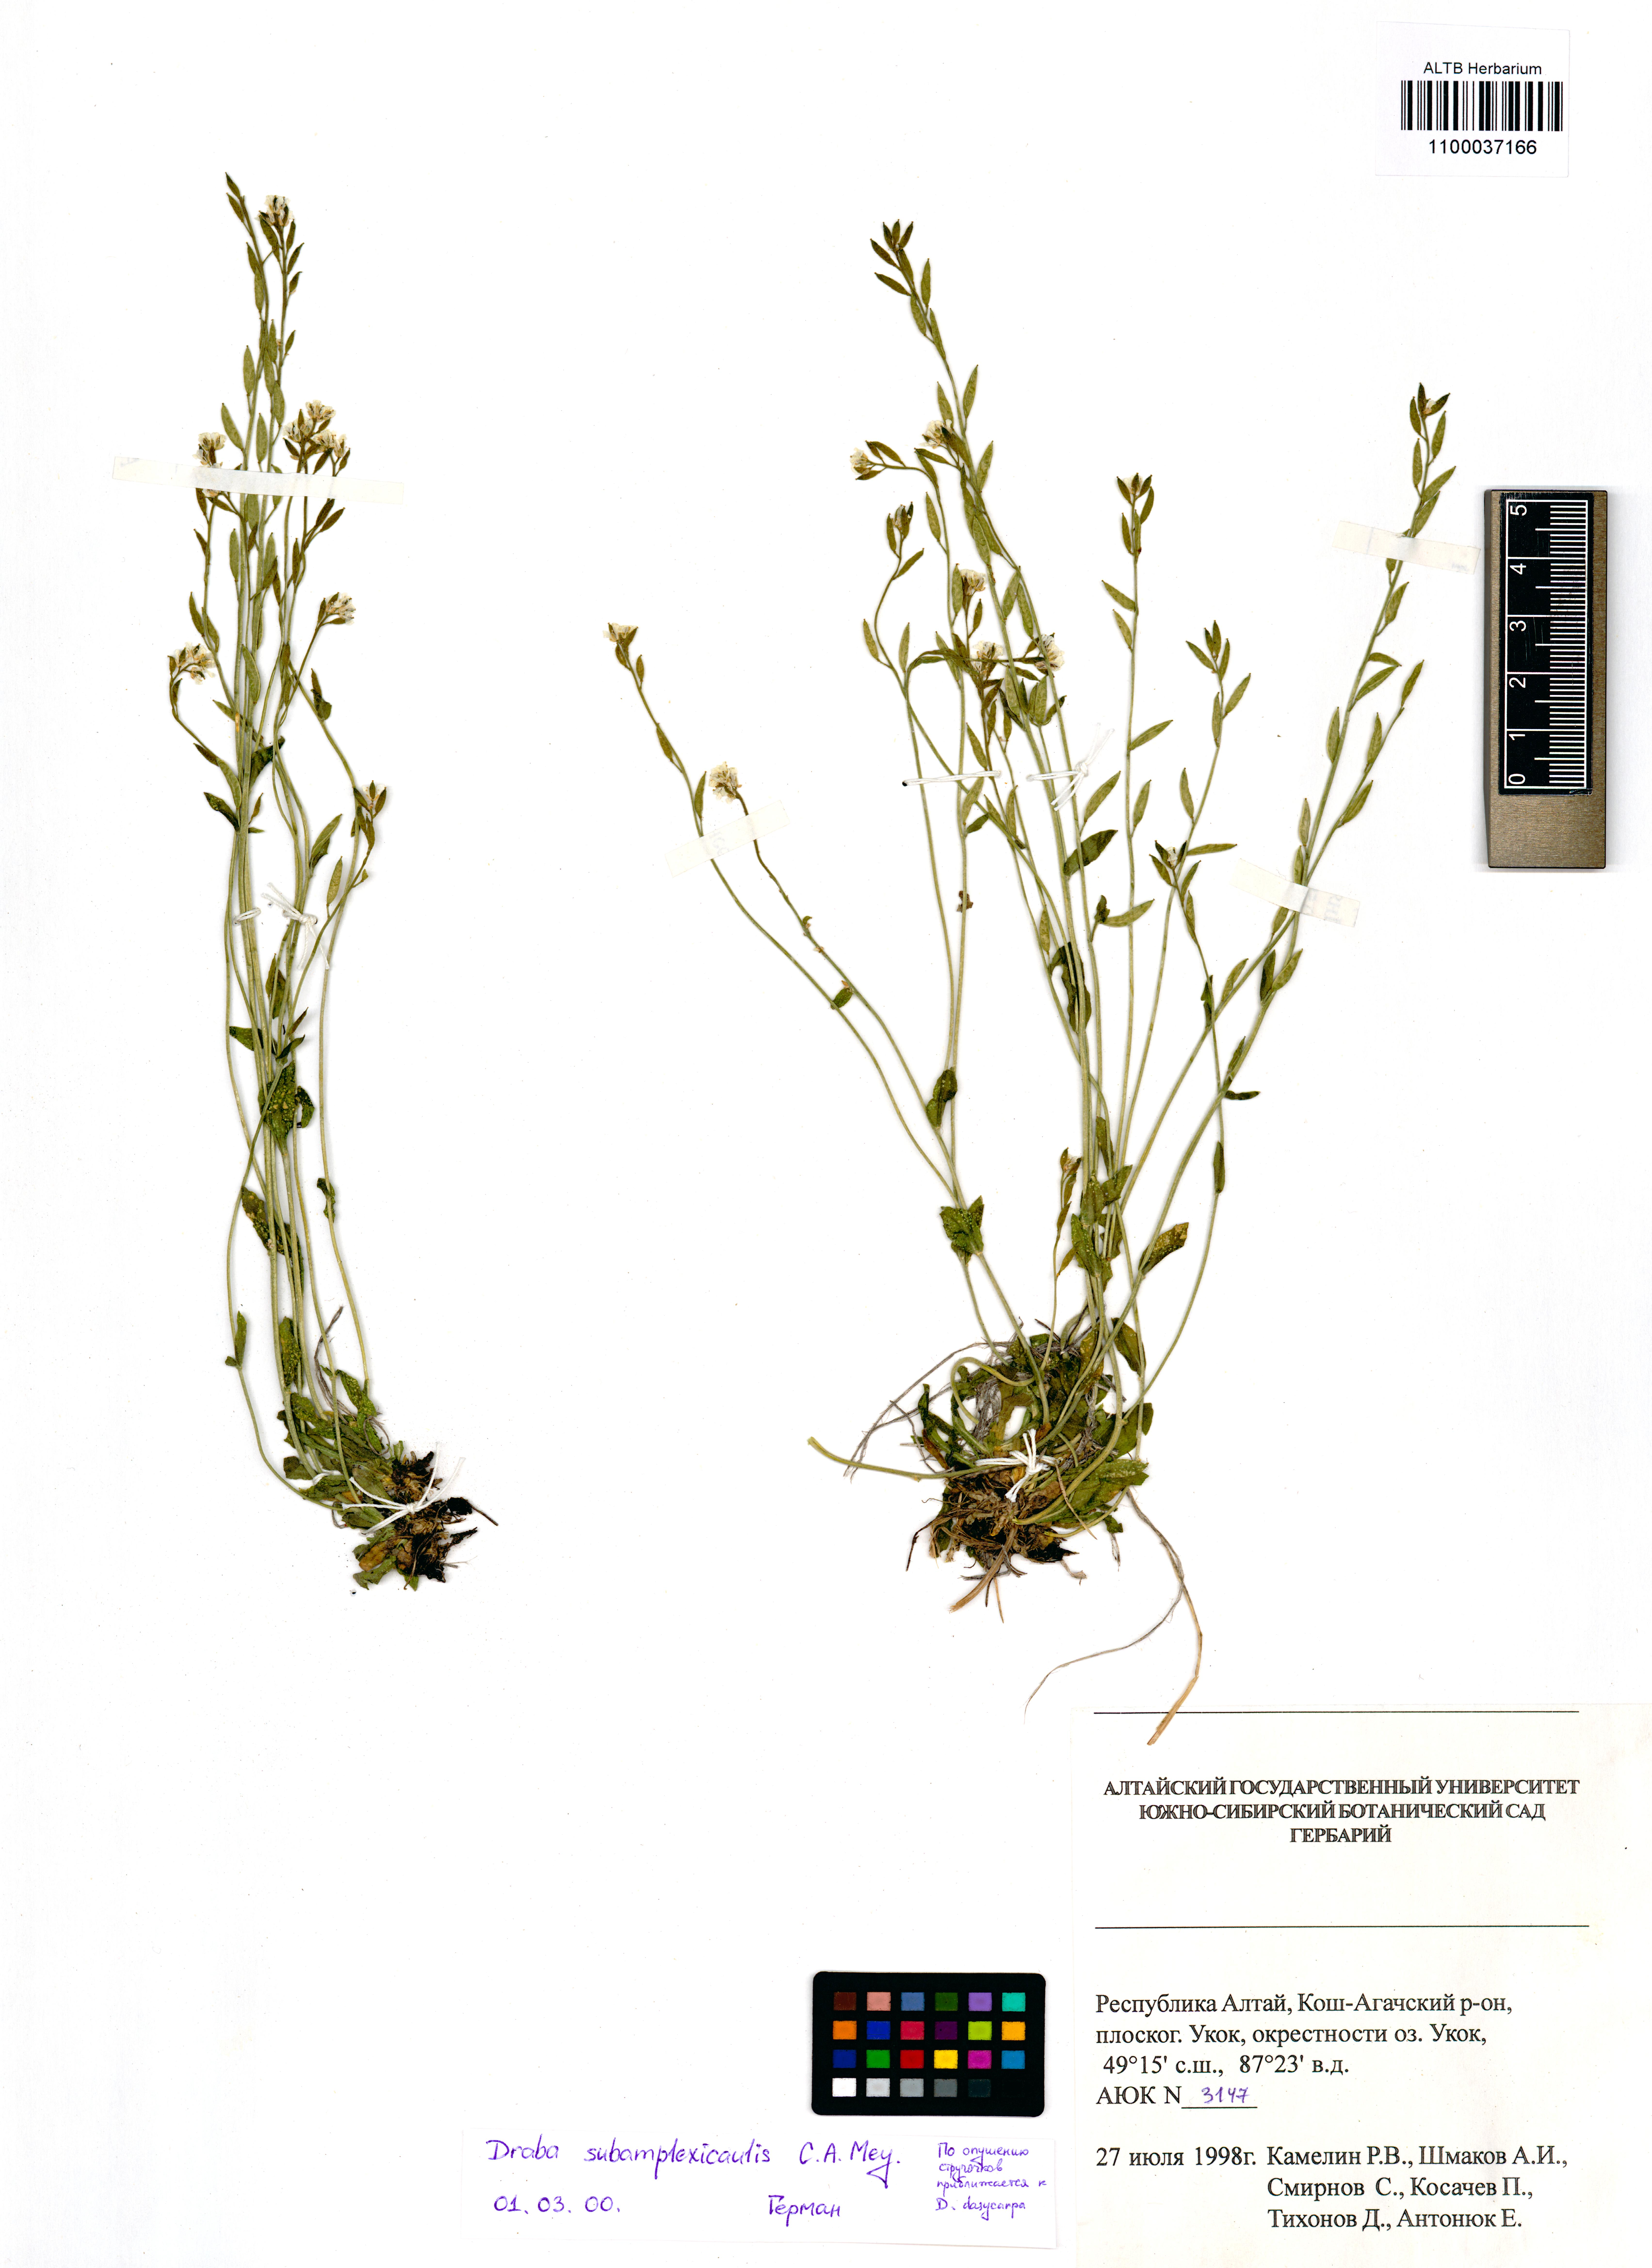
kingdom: Plantae
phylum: Tracheophyta
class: Magnoliopsida
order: Brassicales
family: Brassicaceae
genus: Draba
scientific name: Draba subamplexicaulis
